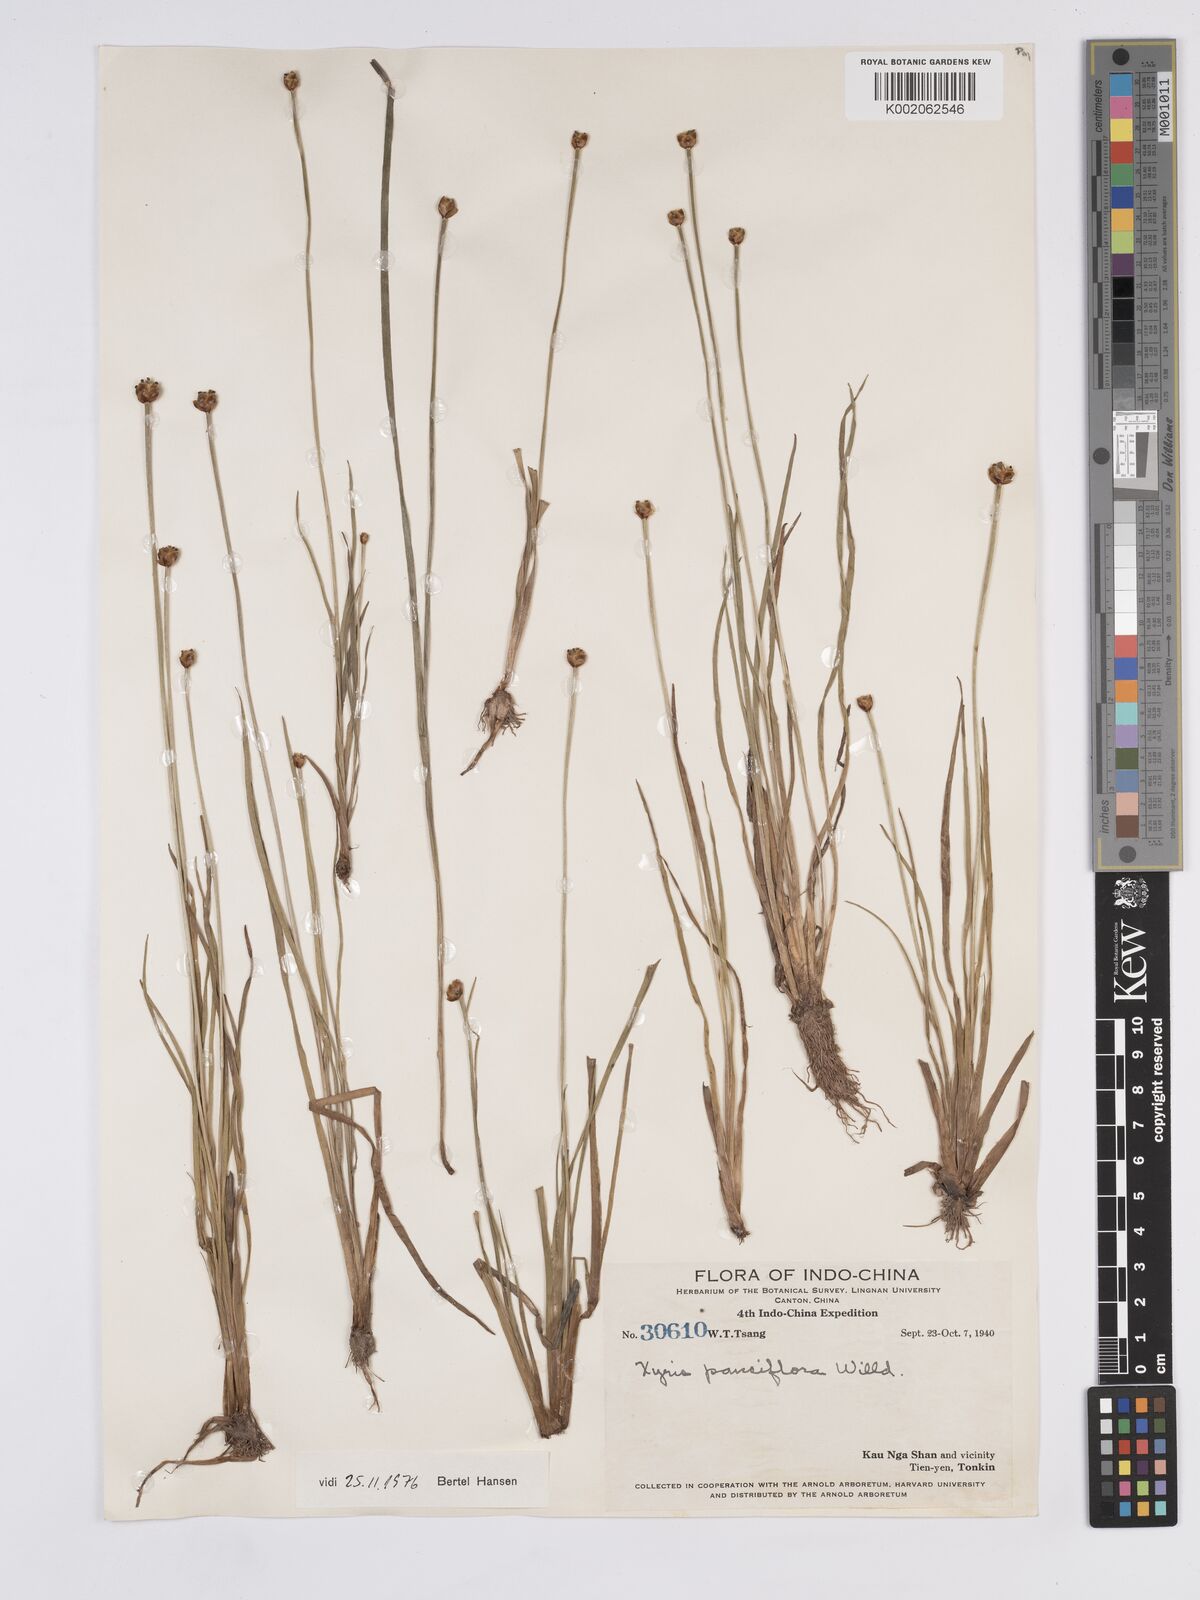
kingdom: Plantae
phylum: Tracheophyta
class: Liliopsida
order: Poales
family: Xyridaceae
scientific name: Xyridaceae
